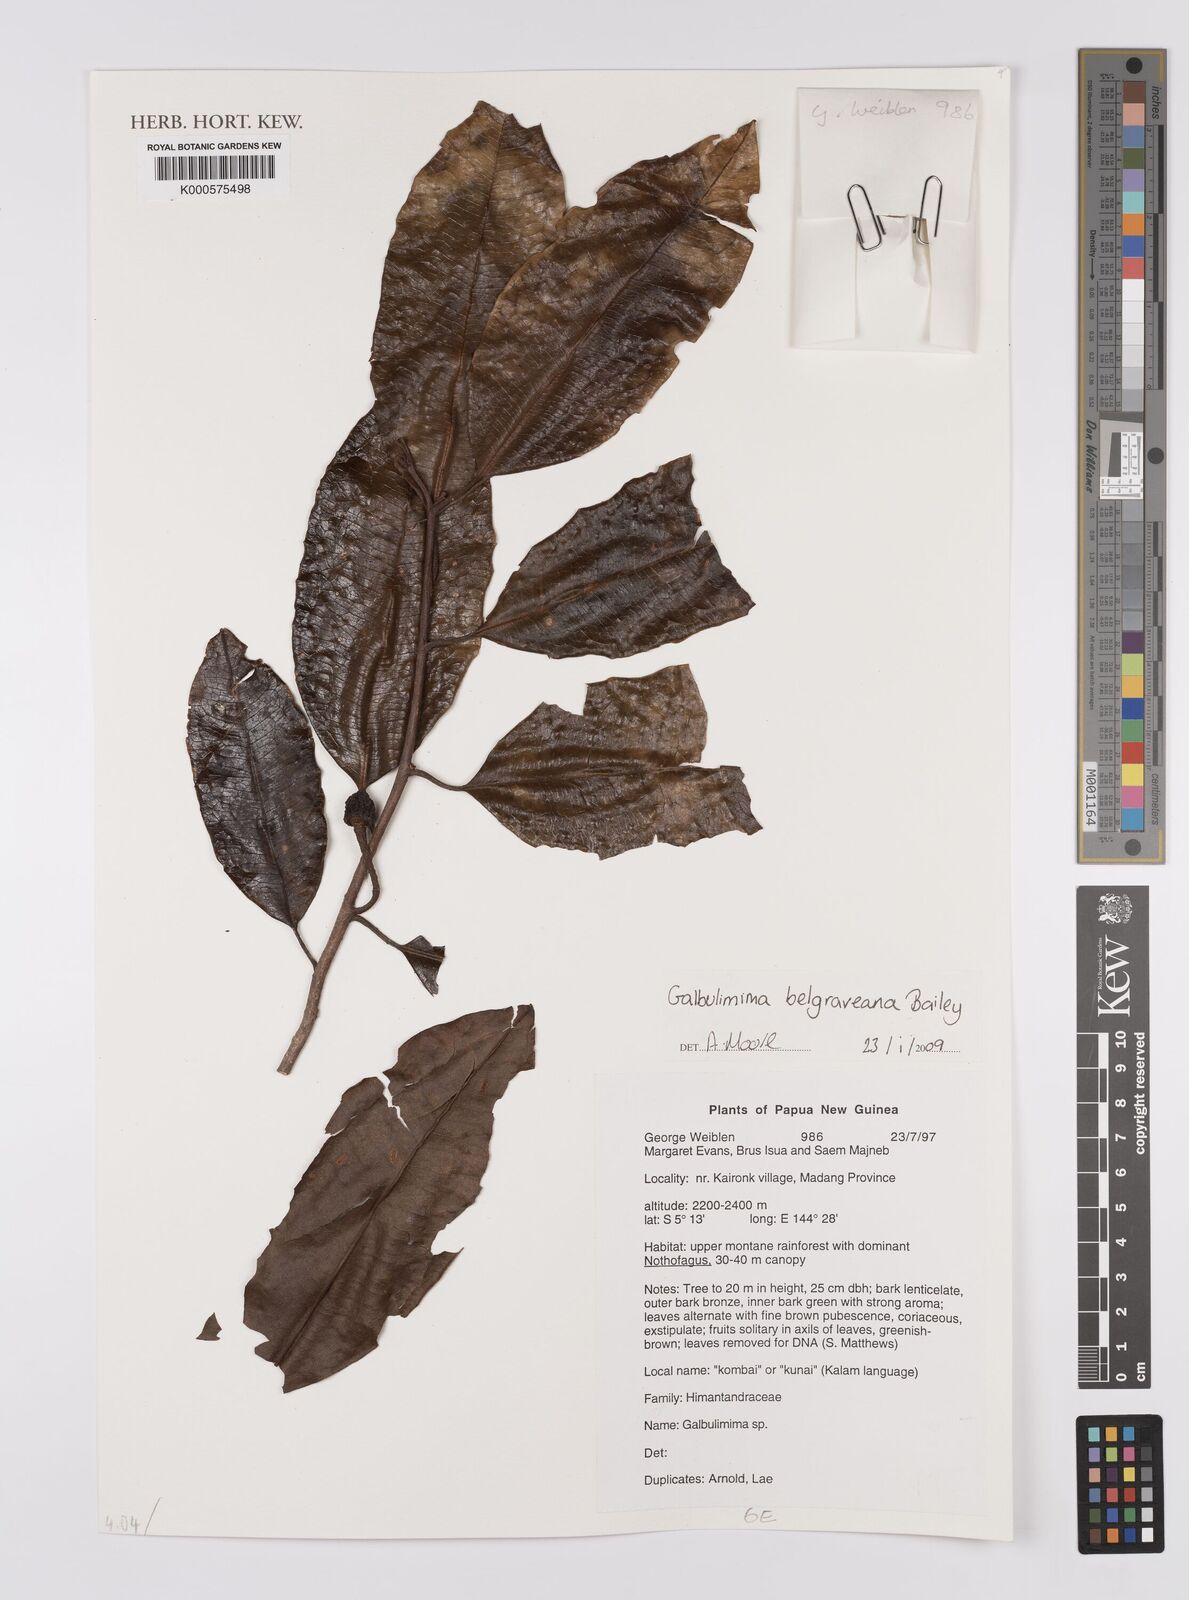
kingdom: Plantae
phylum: Tracheophyta
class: Magnoliopsida
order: Magnoliales
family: Himantandraceae
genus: Galbulimima
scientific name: Galbulimima
